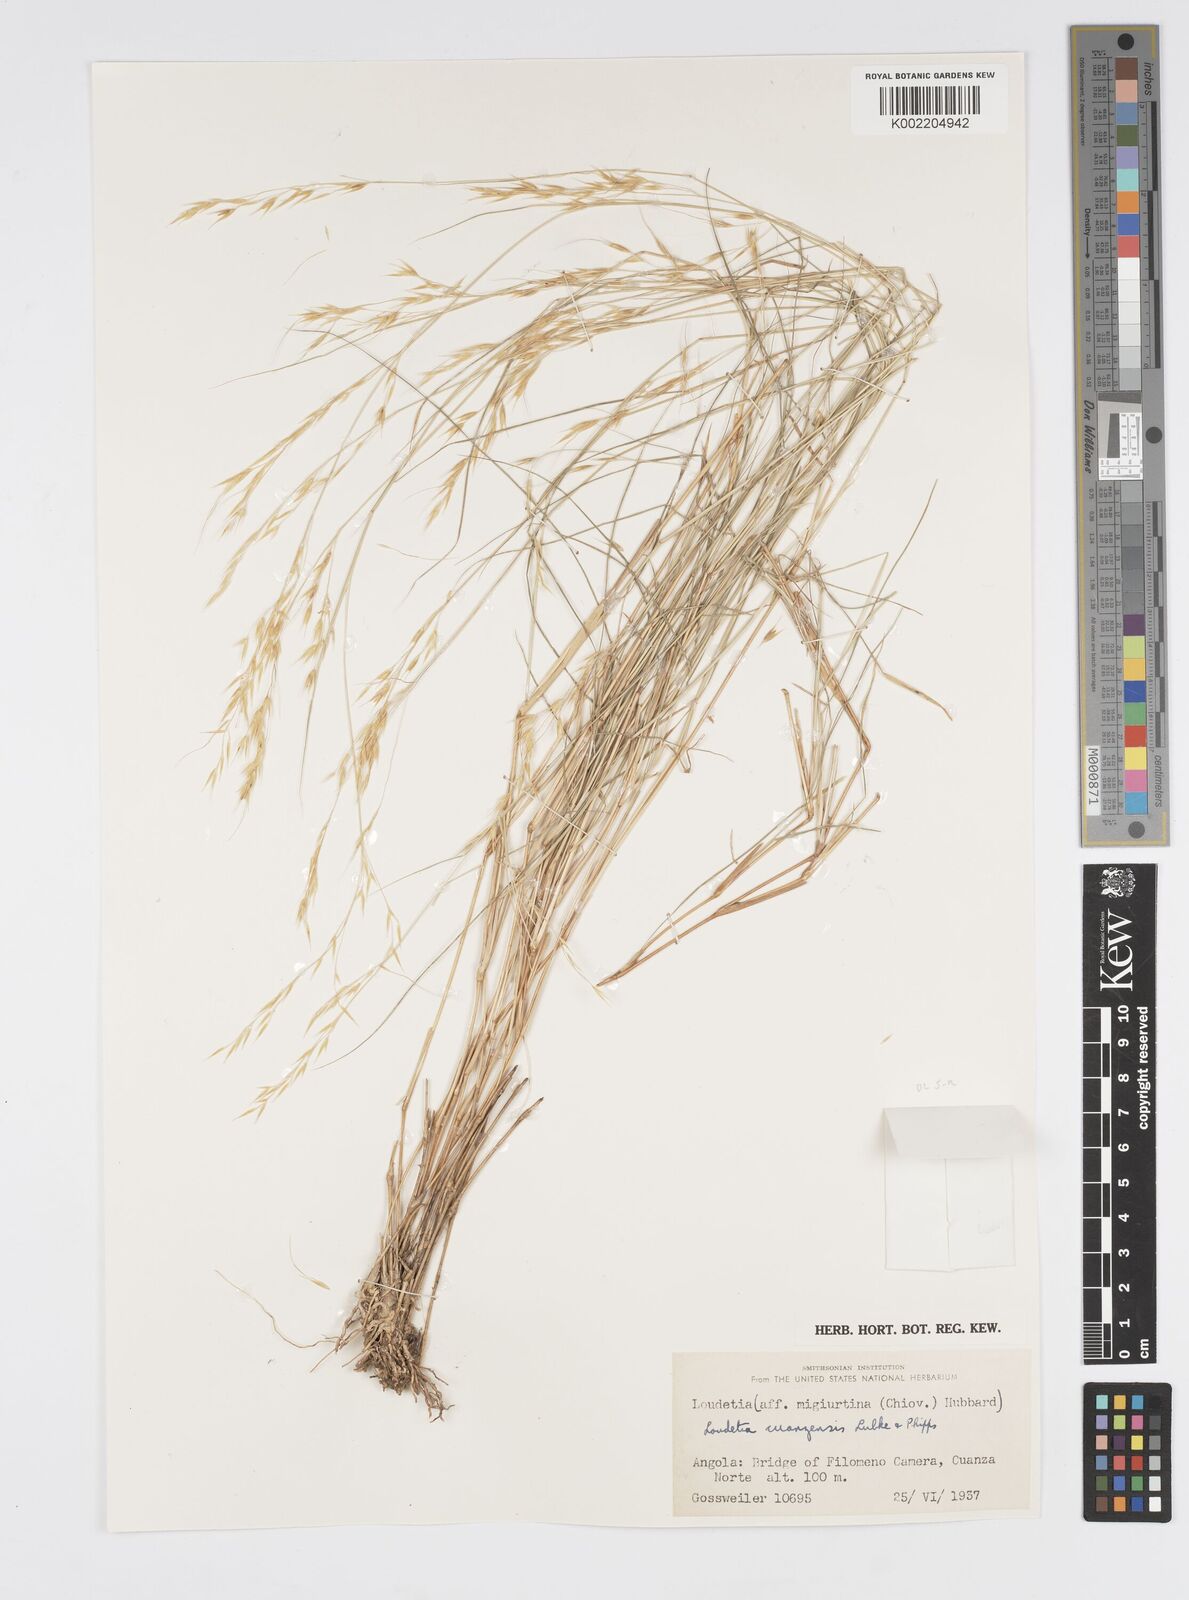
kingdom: Plantae
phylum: Tracheophyta
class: Liliopsida
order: Poales
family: Poaceae
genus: Loudetia
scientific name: Loudetia cuanzensis
